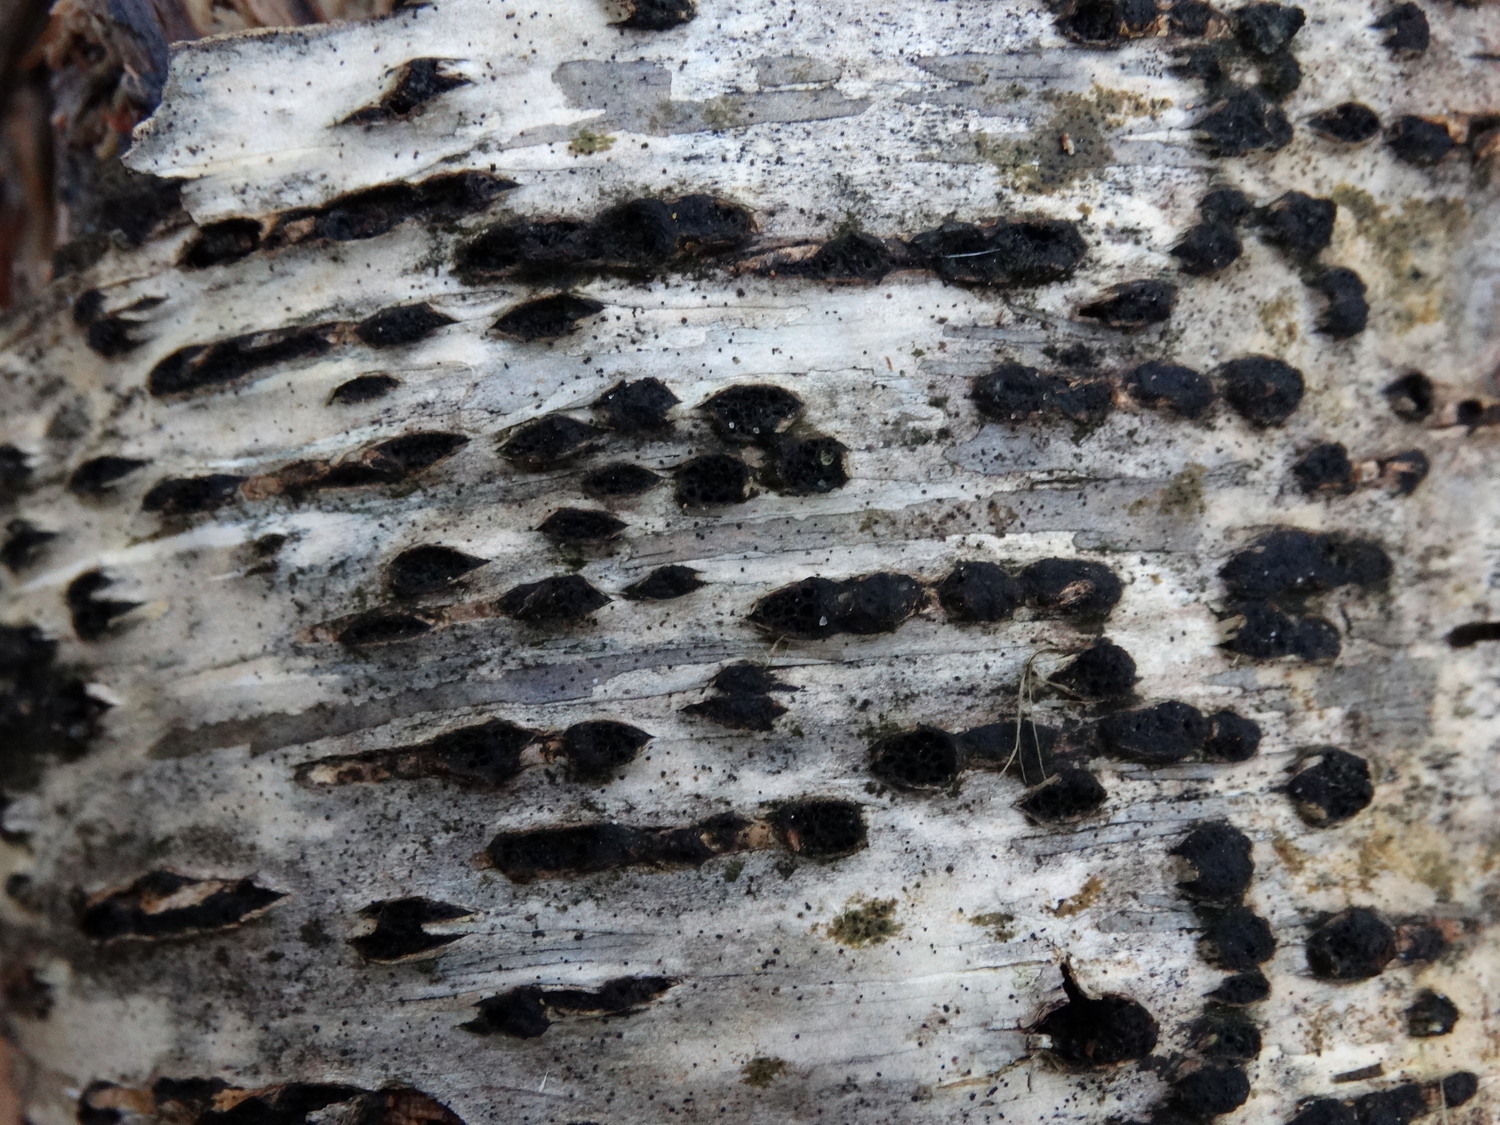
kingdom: Fungi
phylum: Ascomycota
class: Sordariomycetes
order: Xylariales
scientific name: Xylariales
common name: stødsvampordenen
